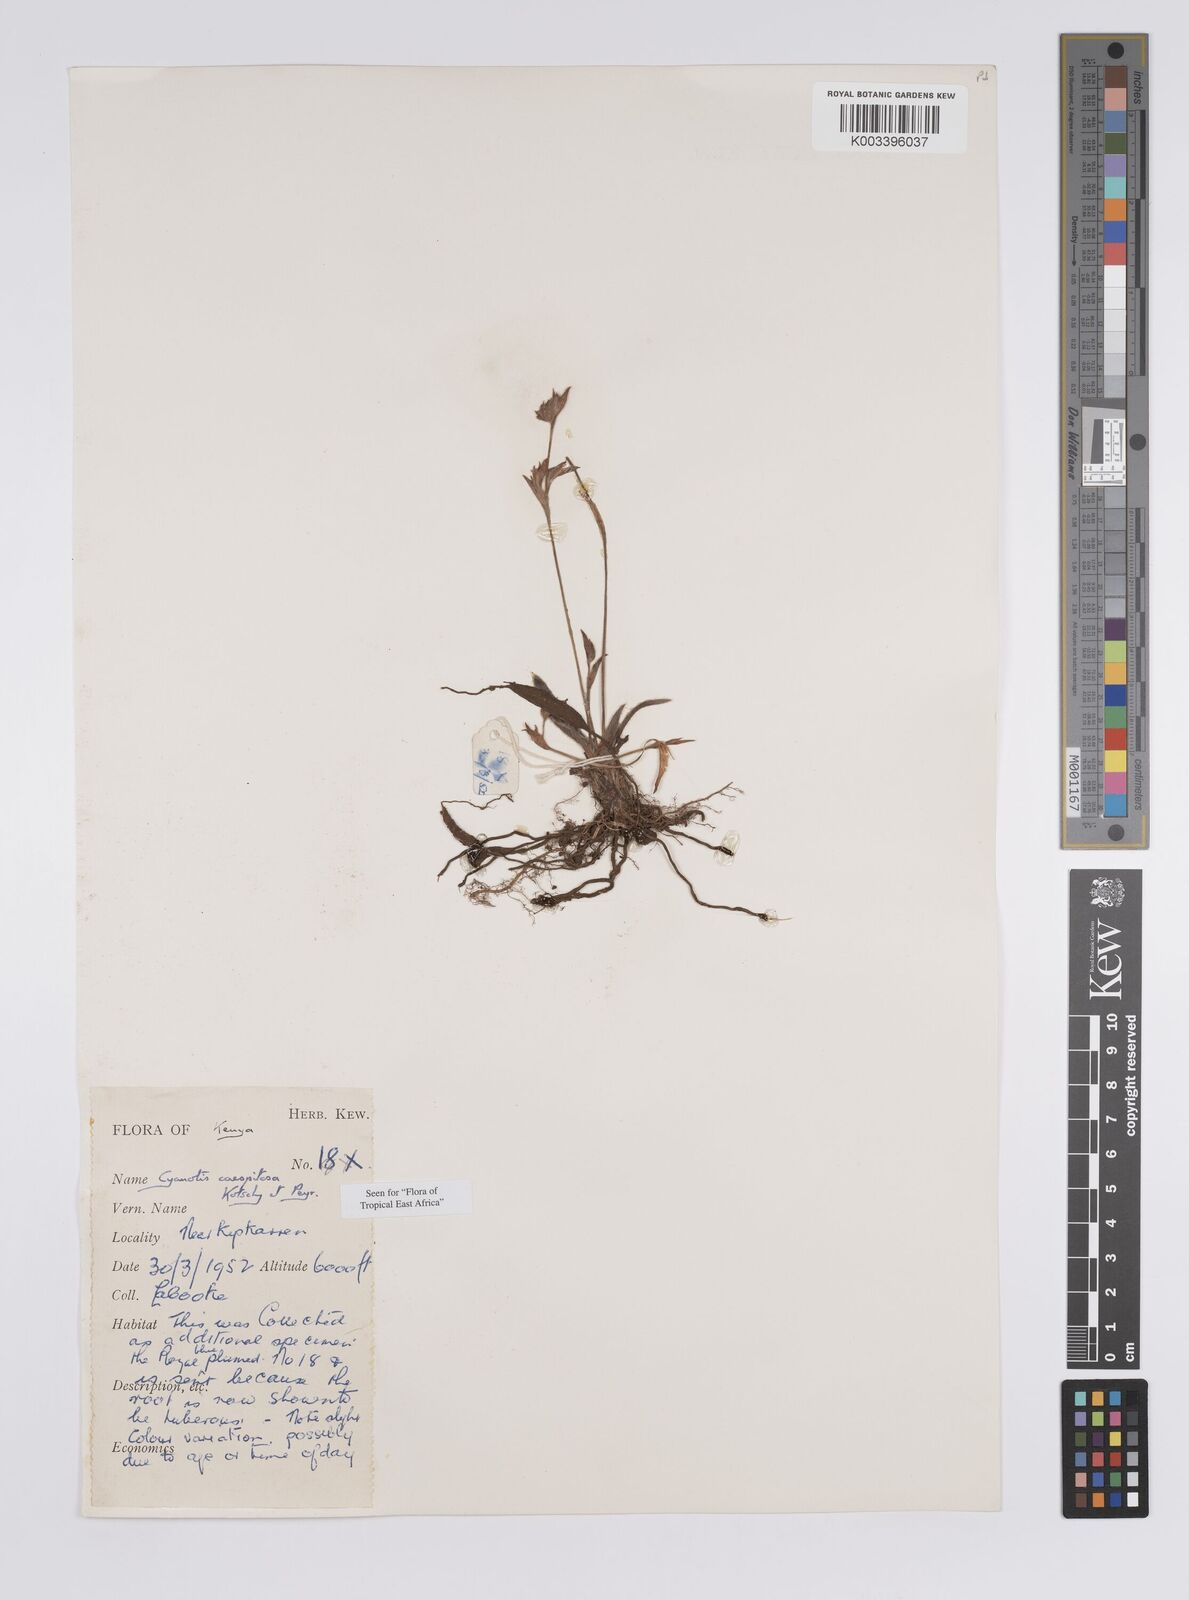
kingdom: Plantae
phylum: Tracheophyta
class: Liliopsida
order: Commelinales
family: Commelinaceae
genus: Cyanotis
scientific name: Cyanotis caespitosa
